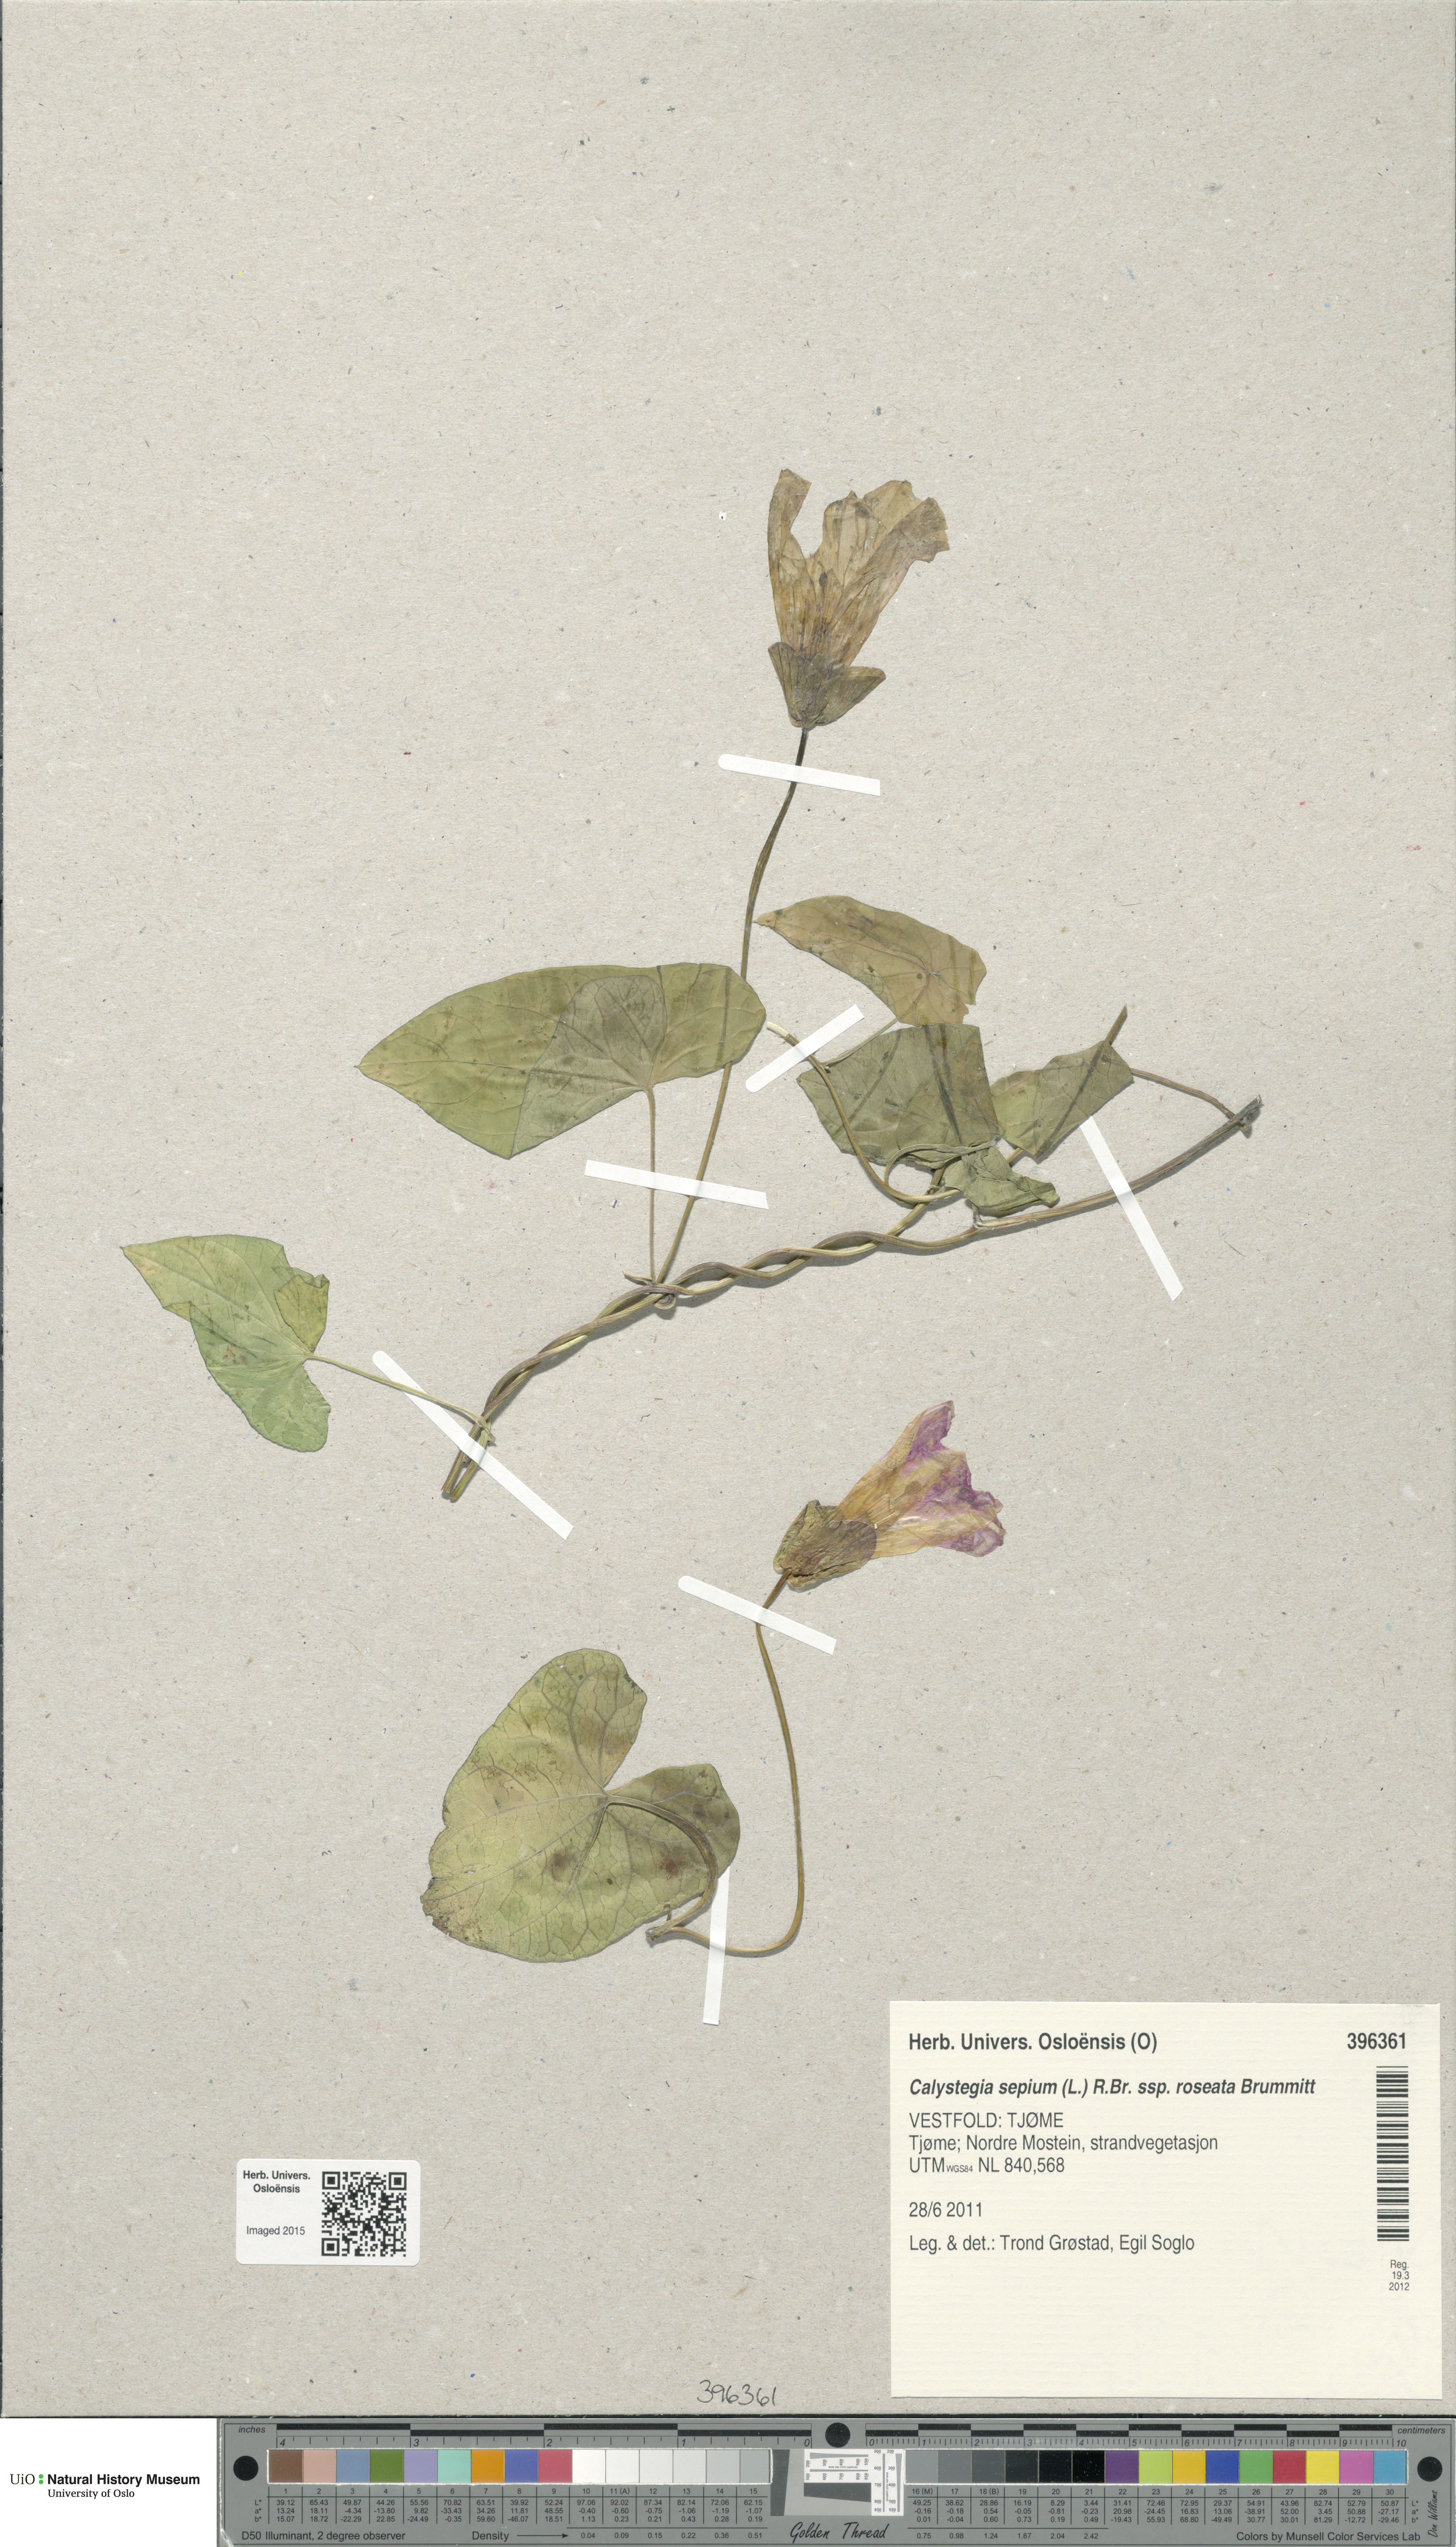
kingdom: Plantae
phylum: Tracheophyta
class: Magnoliopsida
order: Solanales
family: Convolvulaceae
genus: Calystegia
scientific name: Calystegia pulchra
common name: Hairy bindweed
